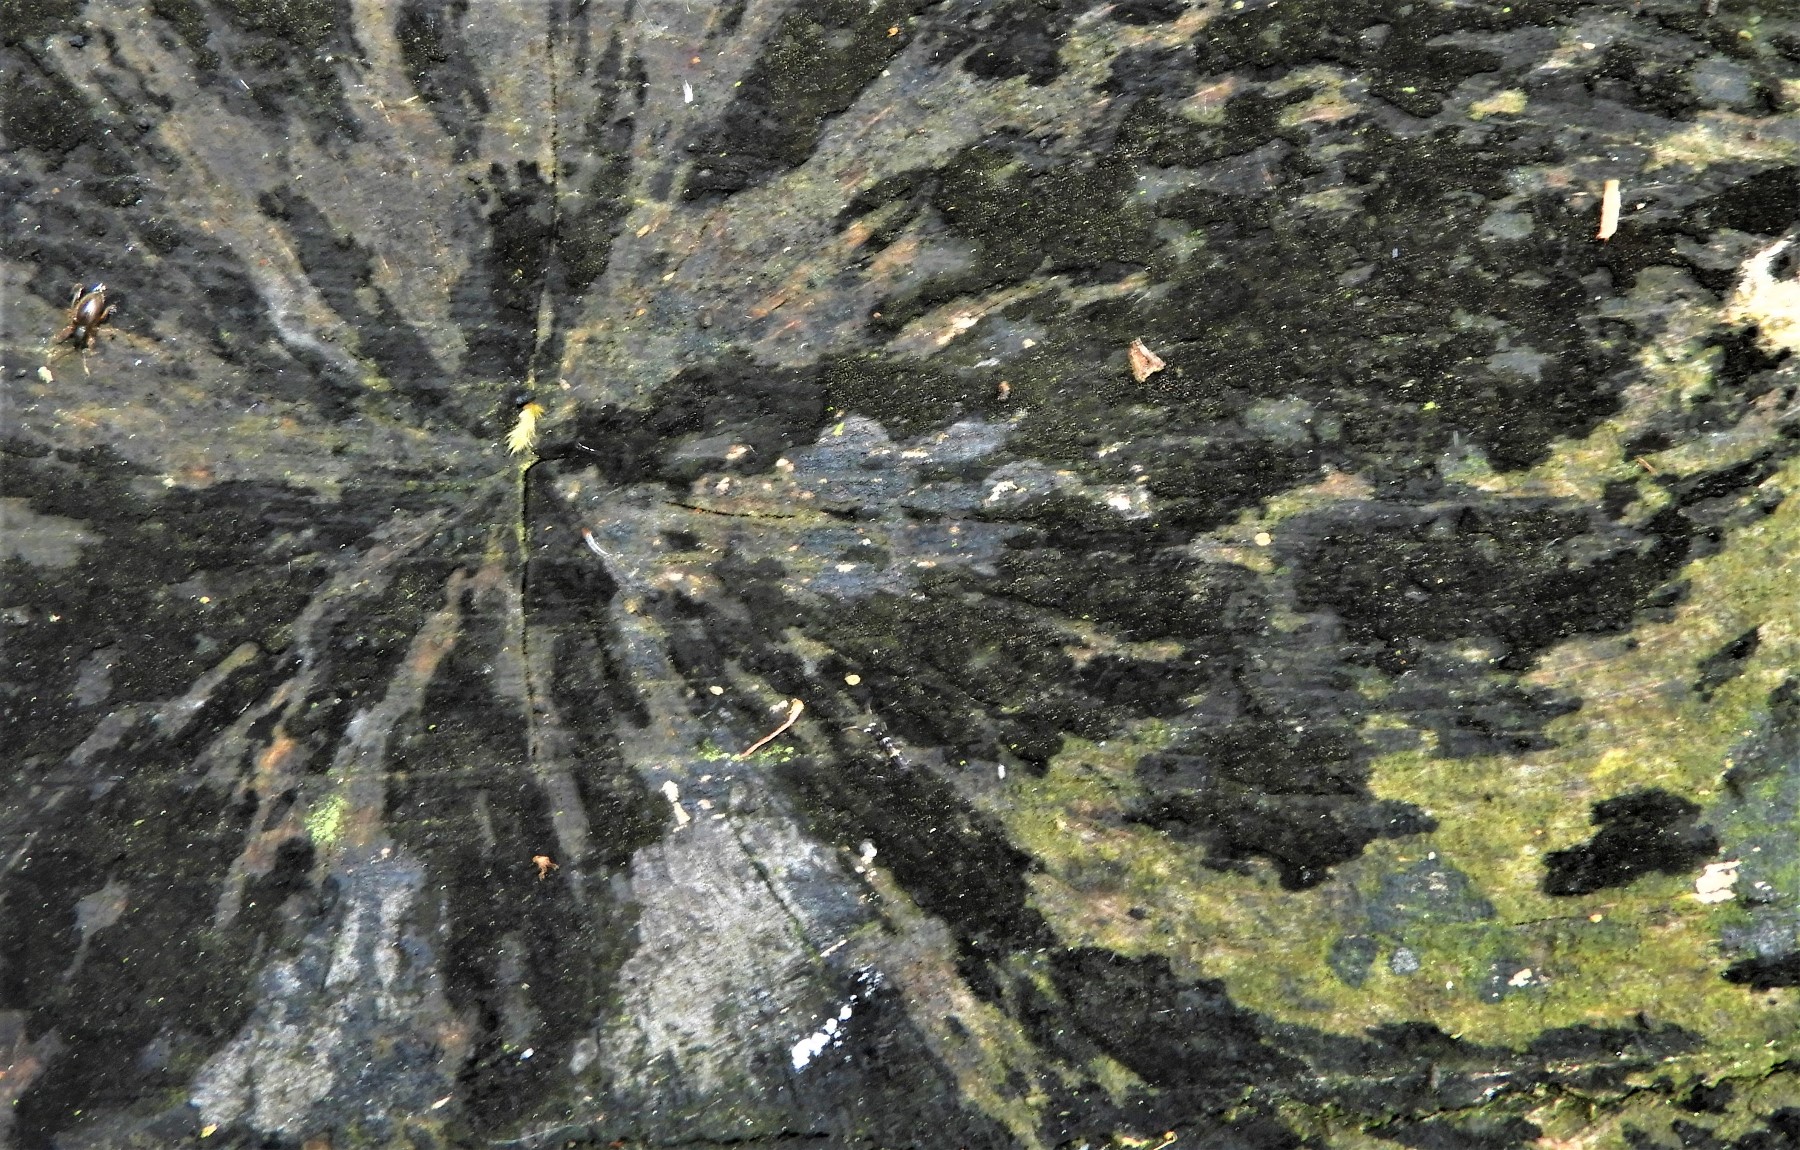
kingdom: Fungi
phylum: Ascomycota
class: Leotiomycetes
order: Helotiales
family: Helotiaceae
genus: Bispora
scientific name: Bispora pallescens
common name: måtte-snitskive
